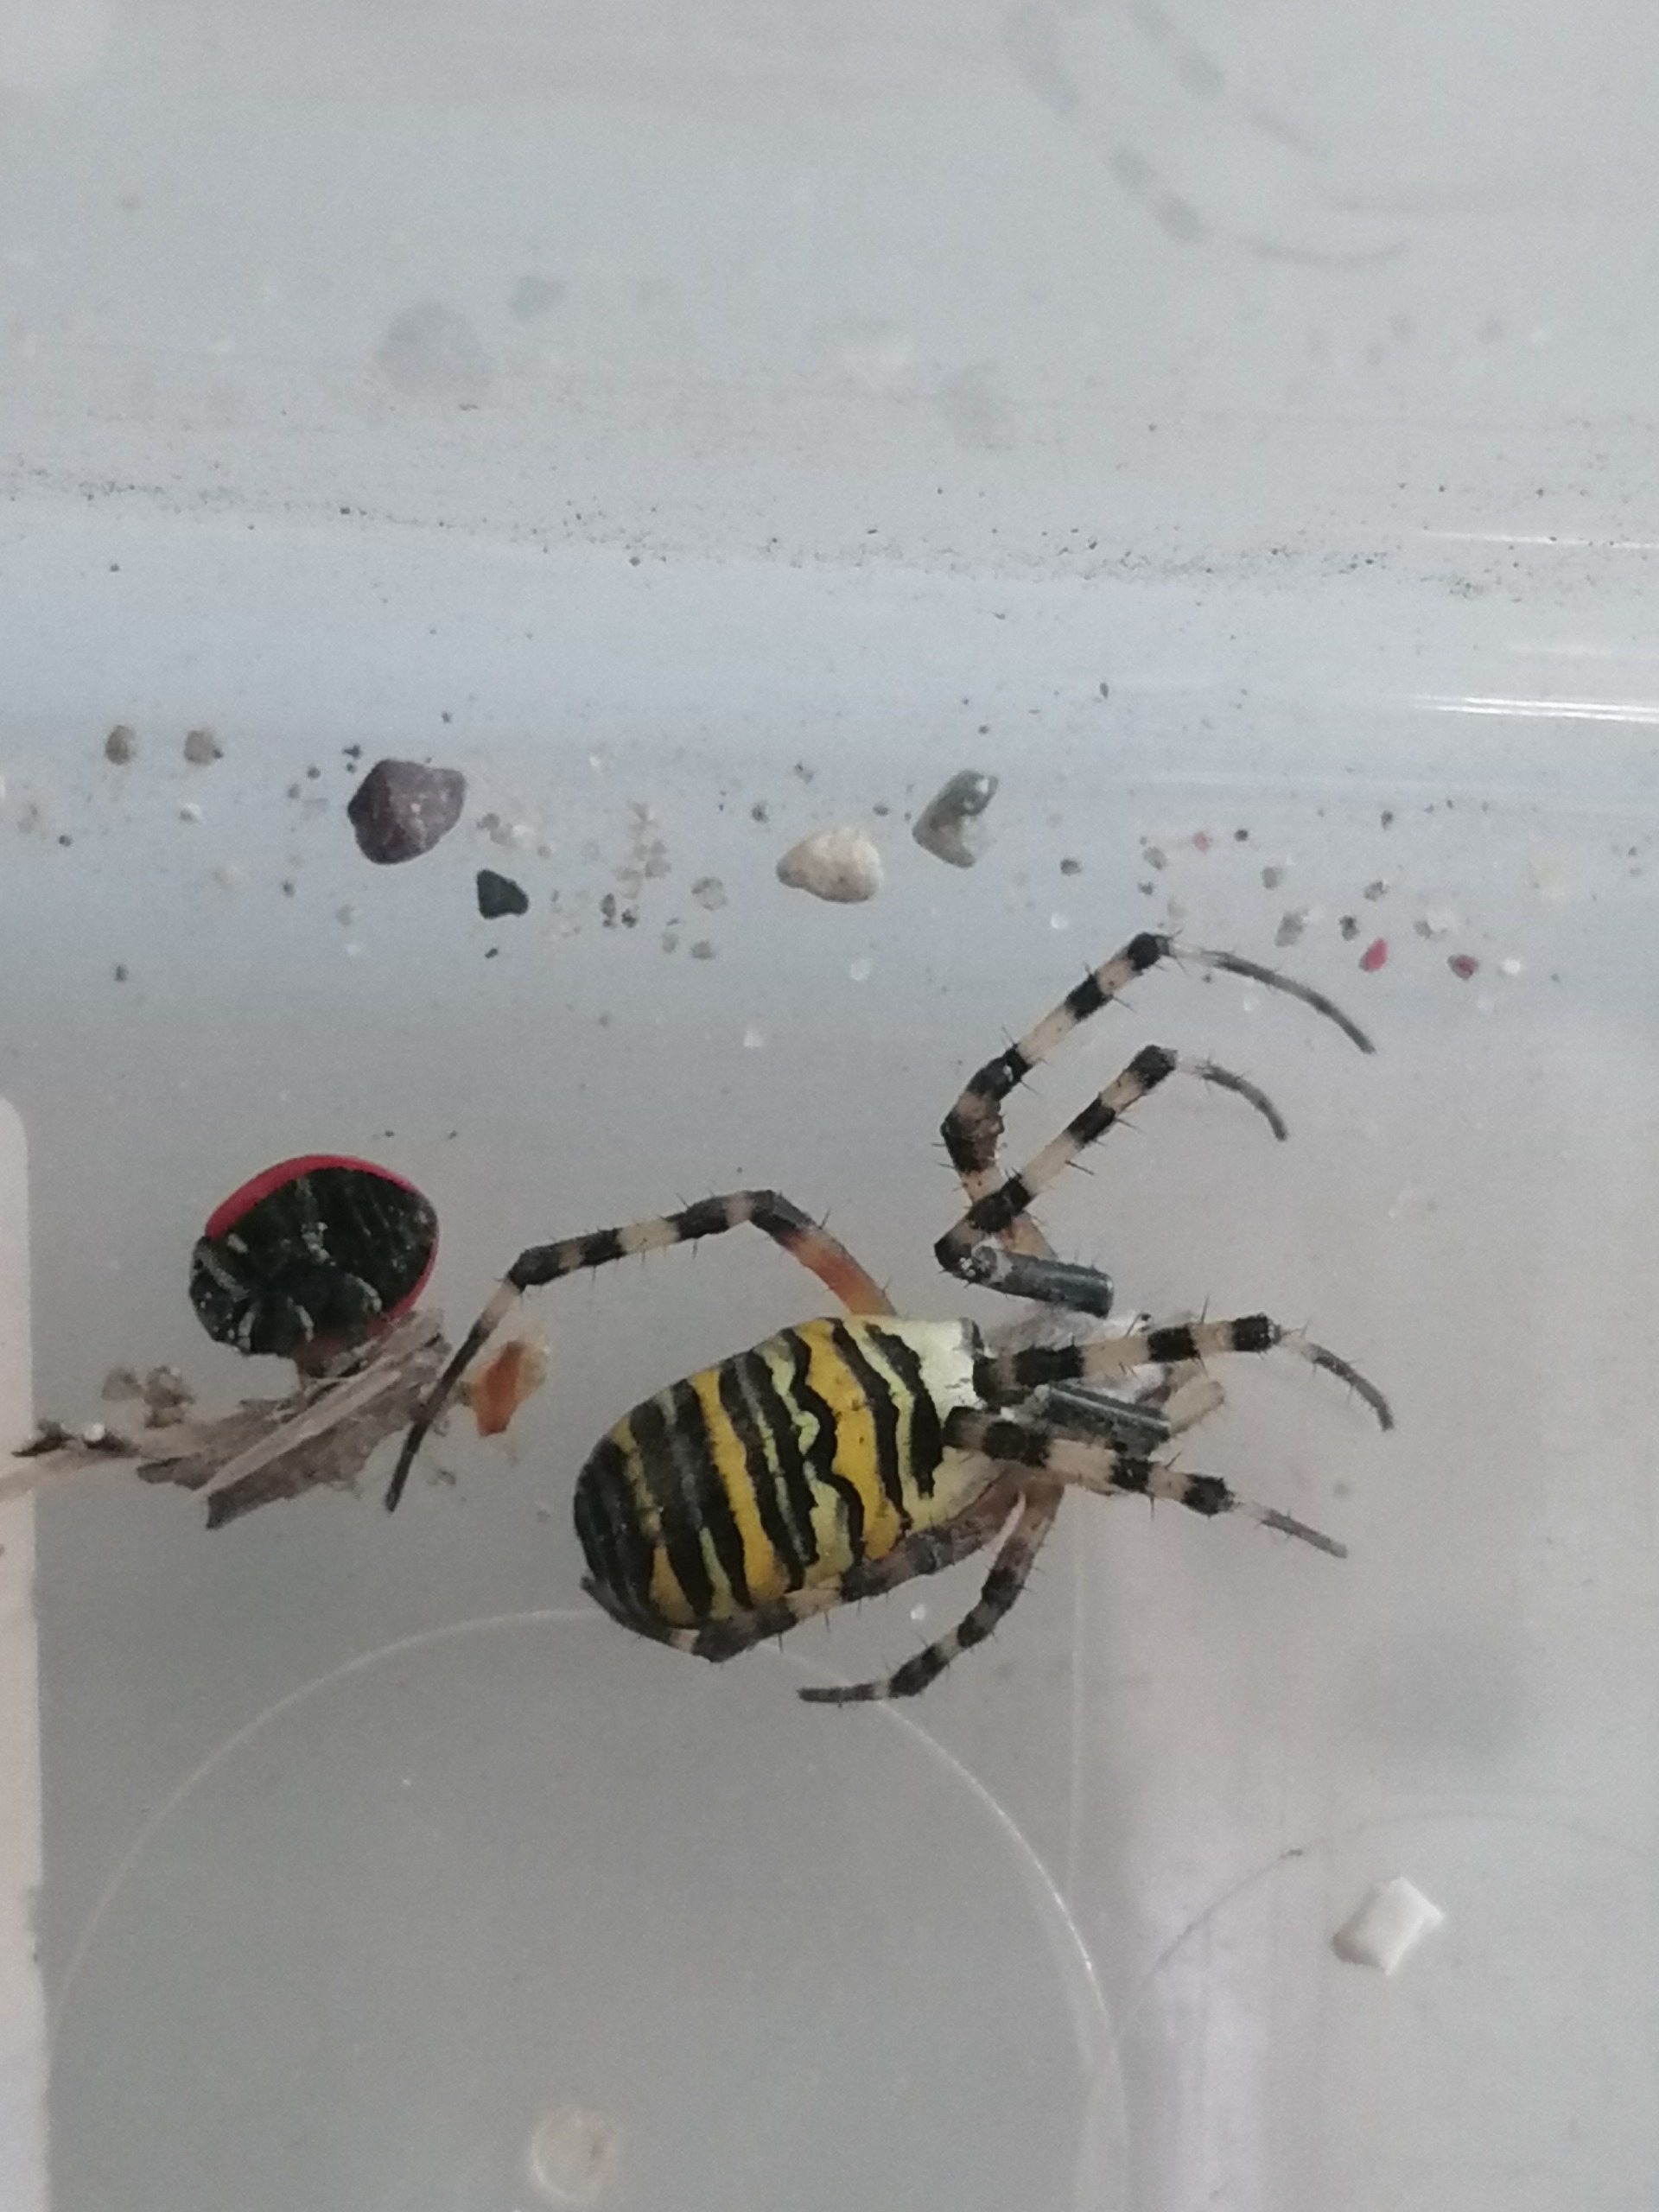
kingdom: Animalia
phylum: Arthropoda
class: Arachnida
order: Araneae
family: Araneidae
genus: Argiope
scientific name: Argiope bruennichi
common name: Hvepseedderkop
